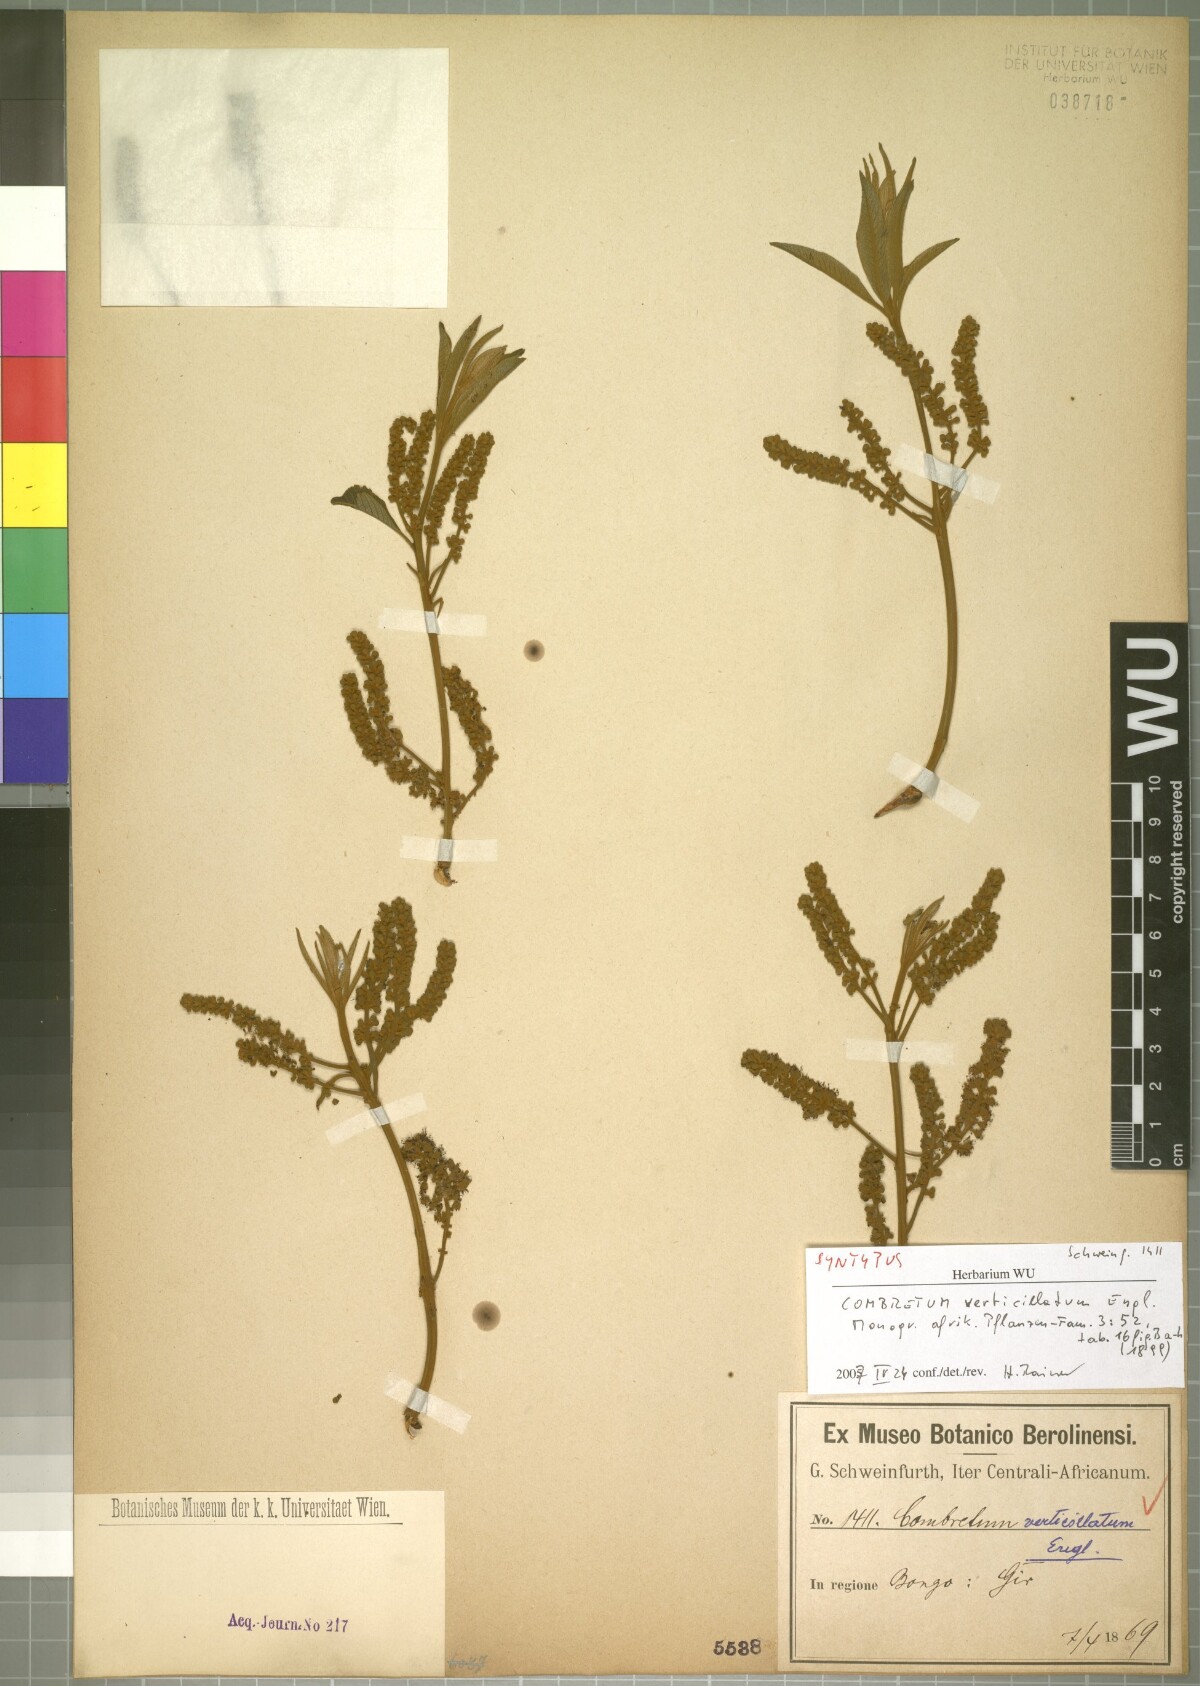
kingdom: Plantae
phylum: Tracheophyta
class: Magnoliopsida
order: Myrtales
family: Combretaceae
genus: Combretum
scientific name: Combretum collinum
